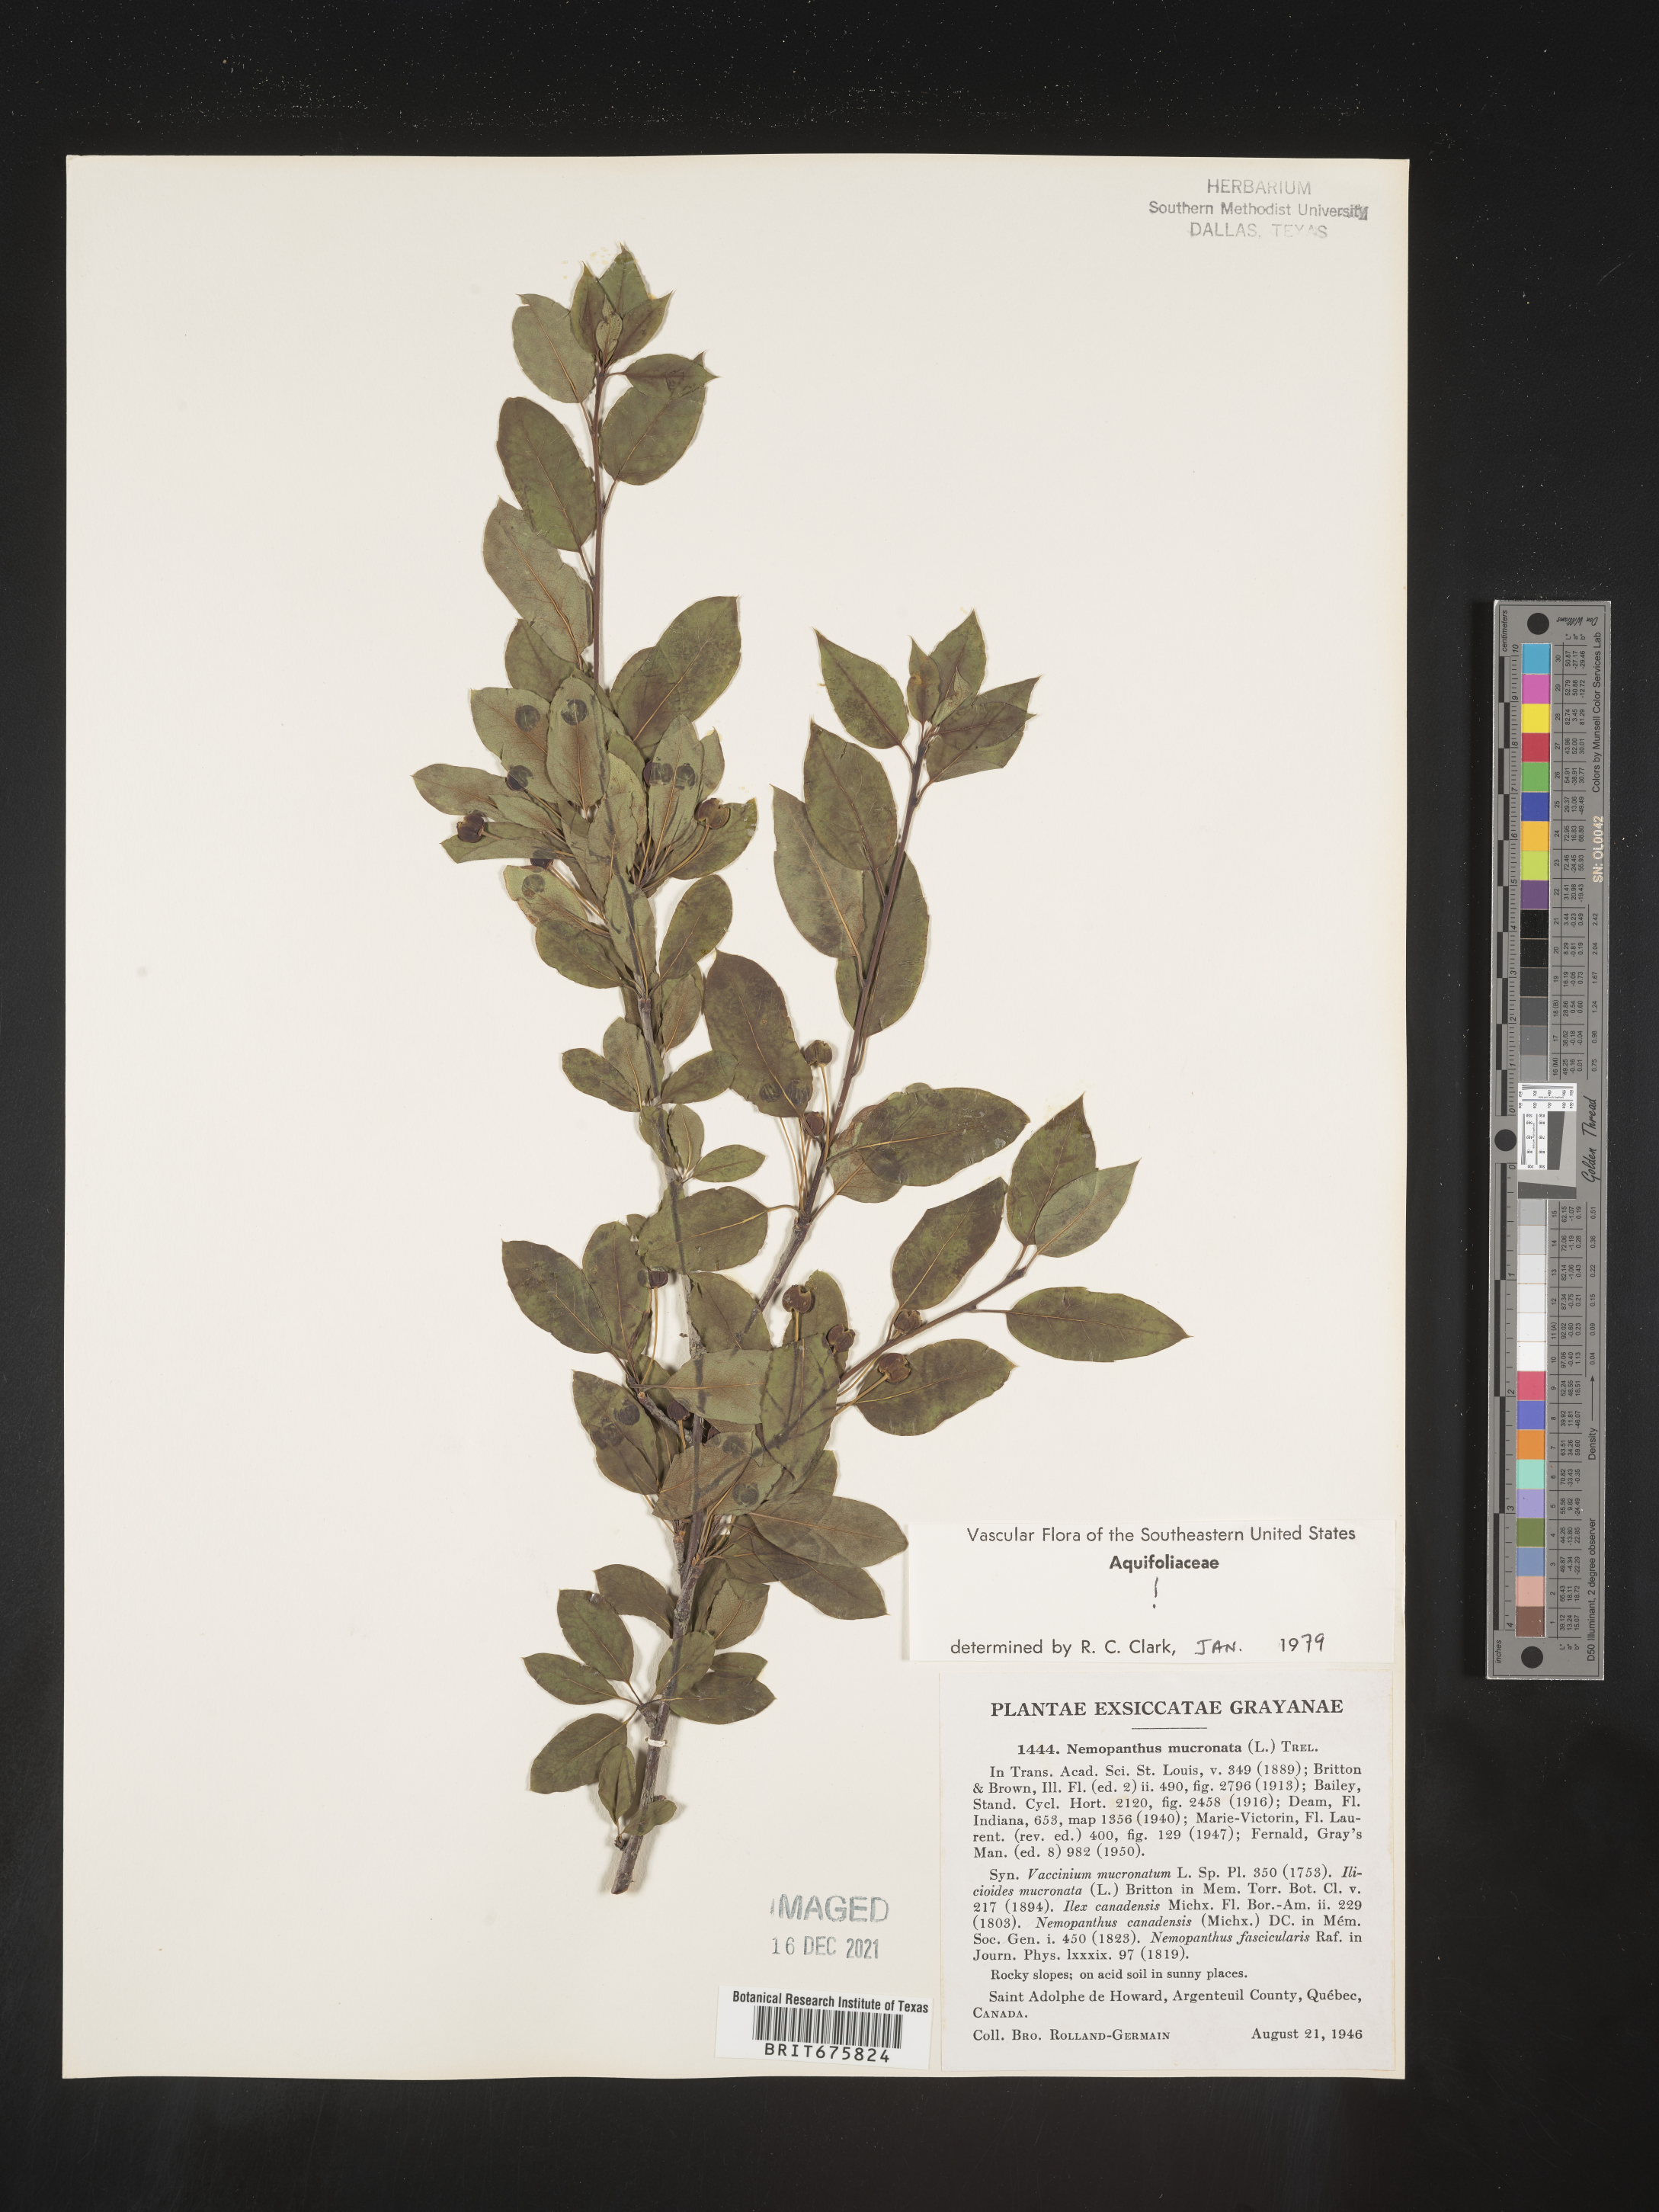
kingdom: Plantae
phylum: Tracheophyta
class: Magnoliopsida
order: Aquifoliales
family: Aquifoliaceae
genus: Ilex
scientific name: Ilex mucronata
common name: Catberry
